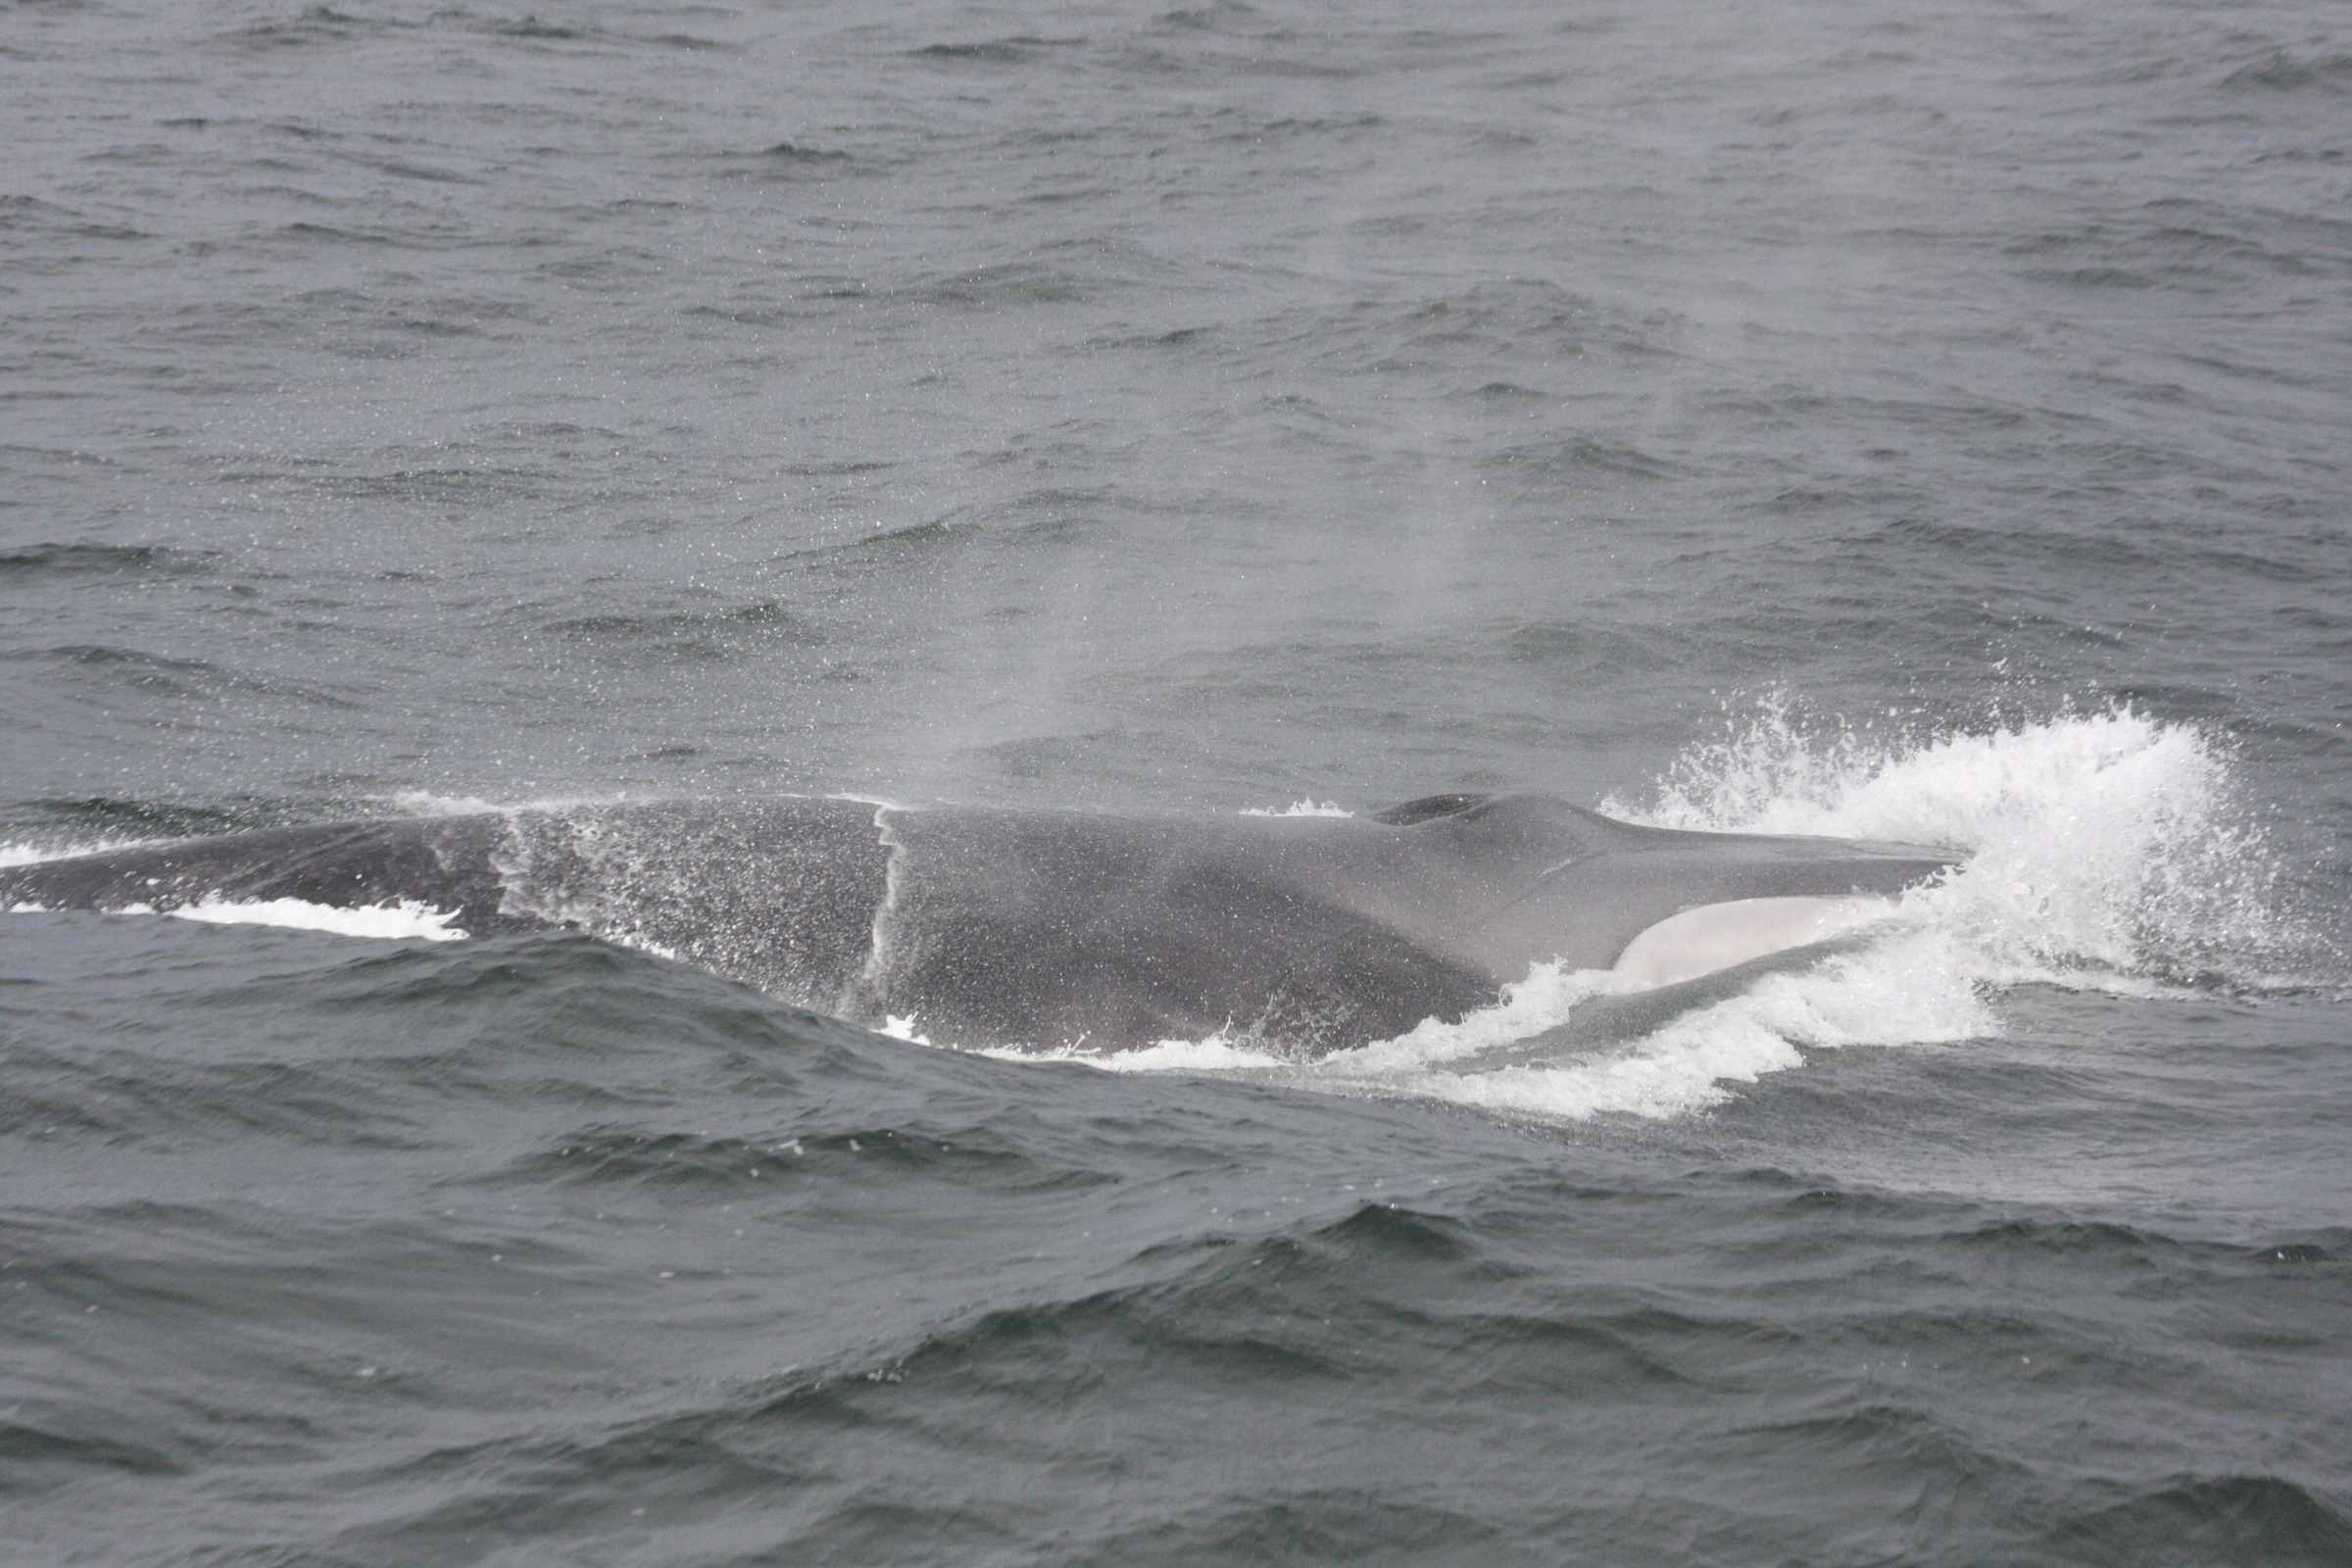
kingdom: Animalia
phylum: Chordata
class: Mammalia
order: Cetacea
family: Balaenopteridae
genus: Balaenoptera
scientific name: Balaenoptera physalus
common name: Fin whale
